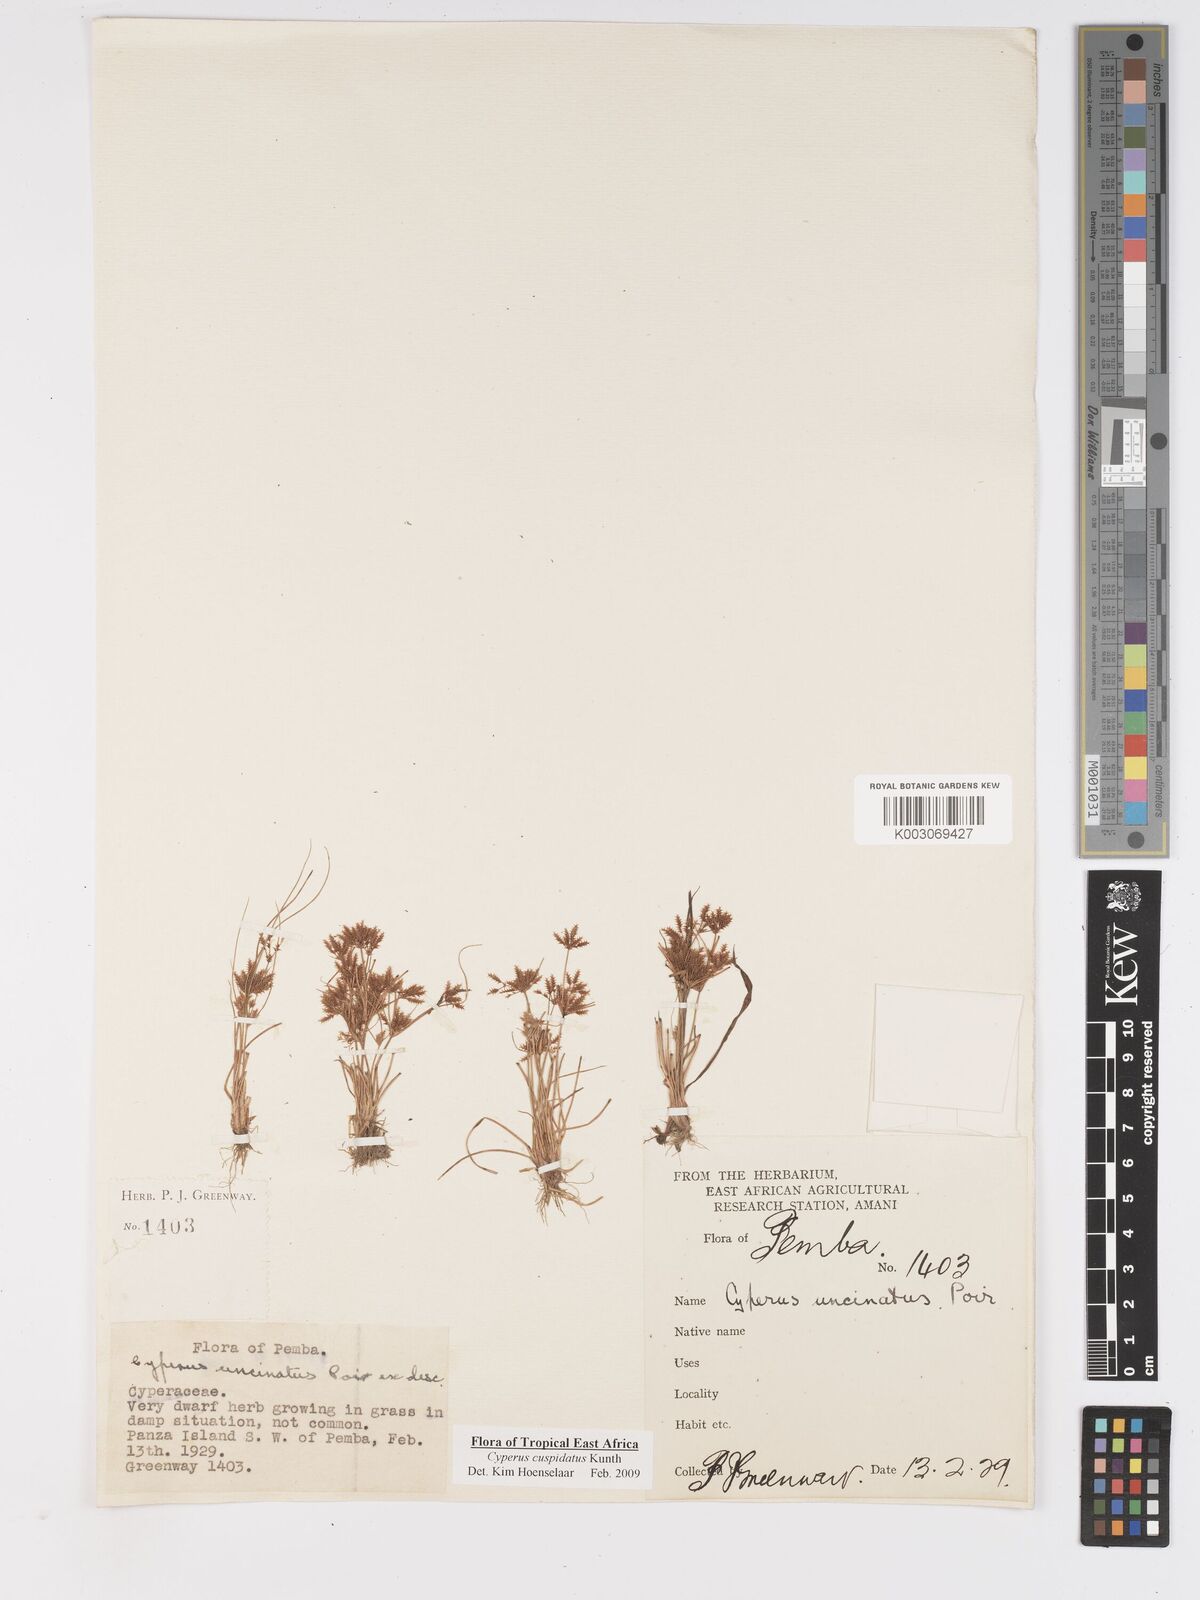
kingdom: Plantae
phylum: Tracheophyta
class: Liliopsida
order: Poales
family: Cyperaceae
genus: Cyperus
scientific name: Cyperus cuspidatus
